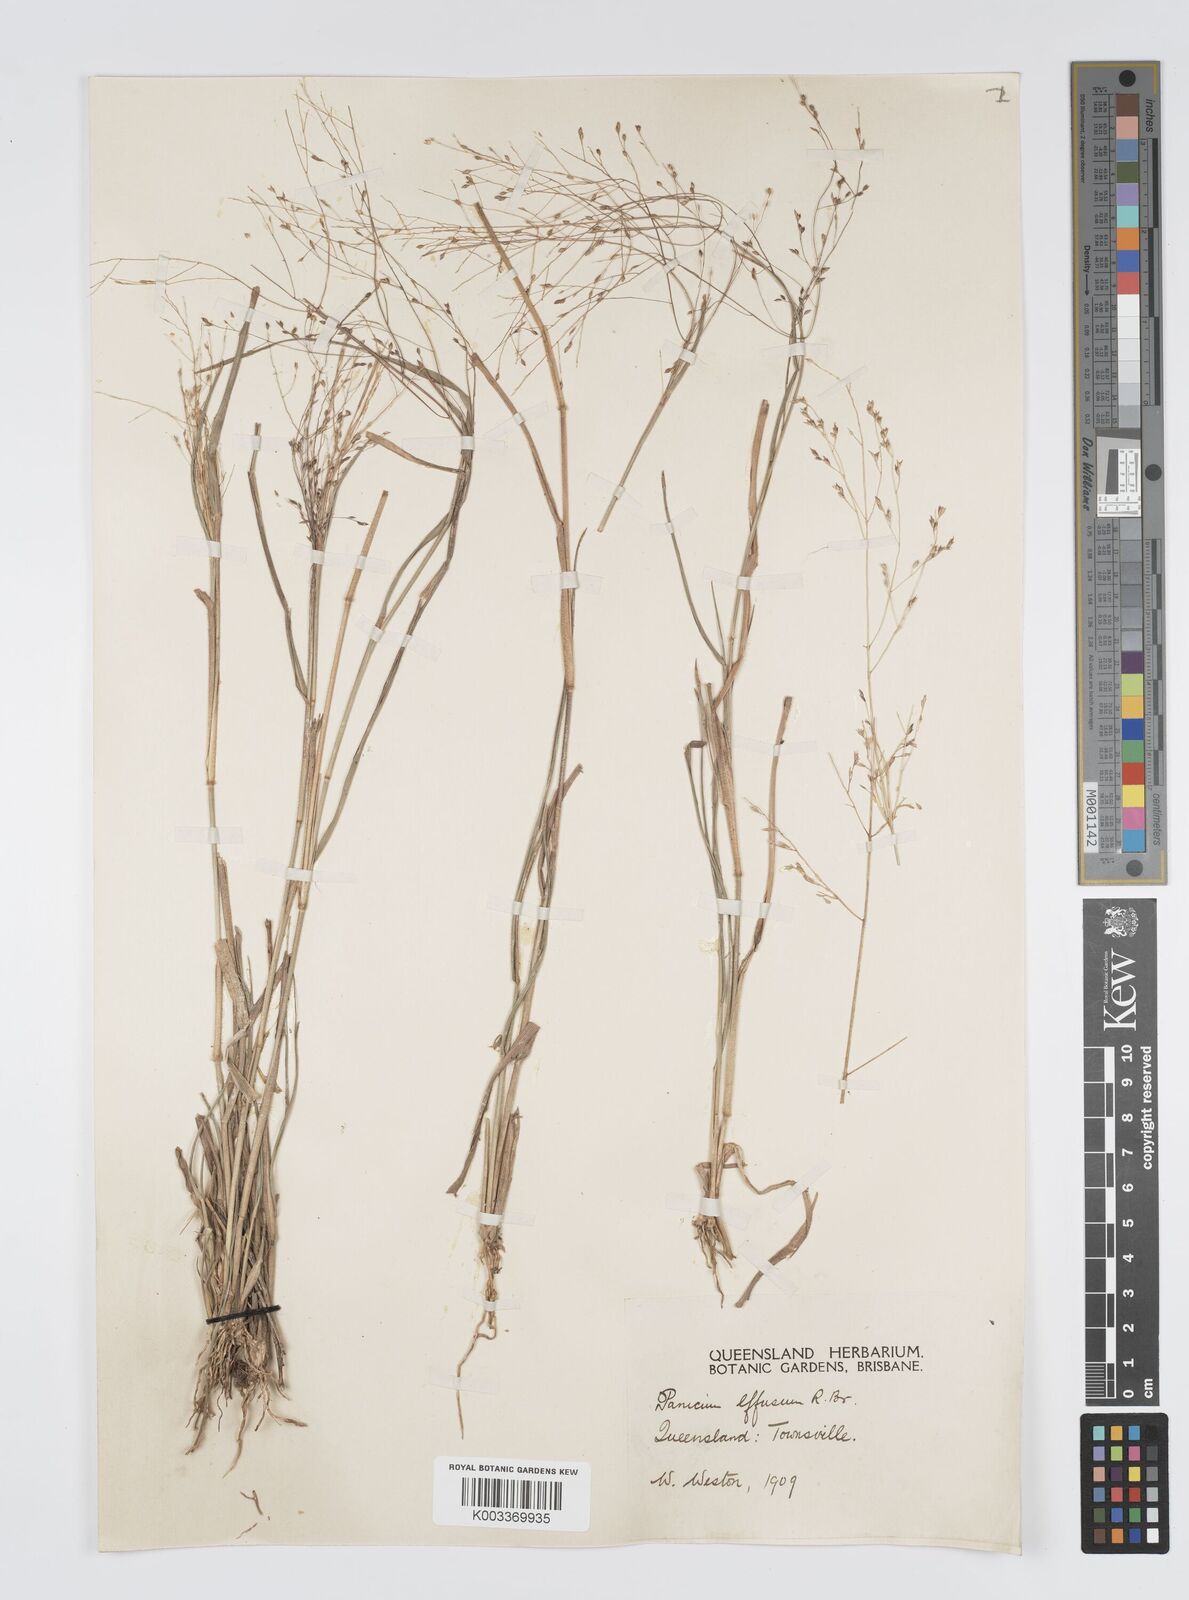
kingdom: Plantae
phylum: Tracheophyta
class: Liliopsida
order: Poales
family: Poaceae
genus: Panicum
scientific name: Panicum effusum
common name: Hairy panic grass
